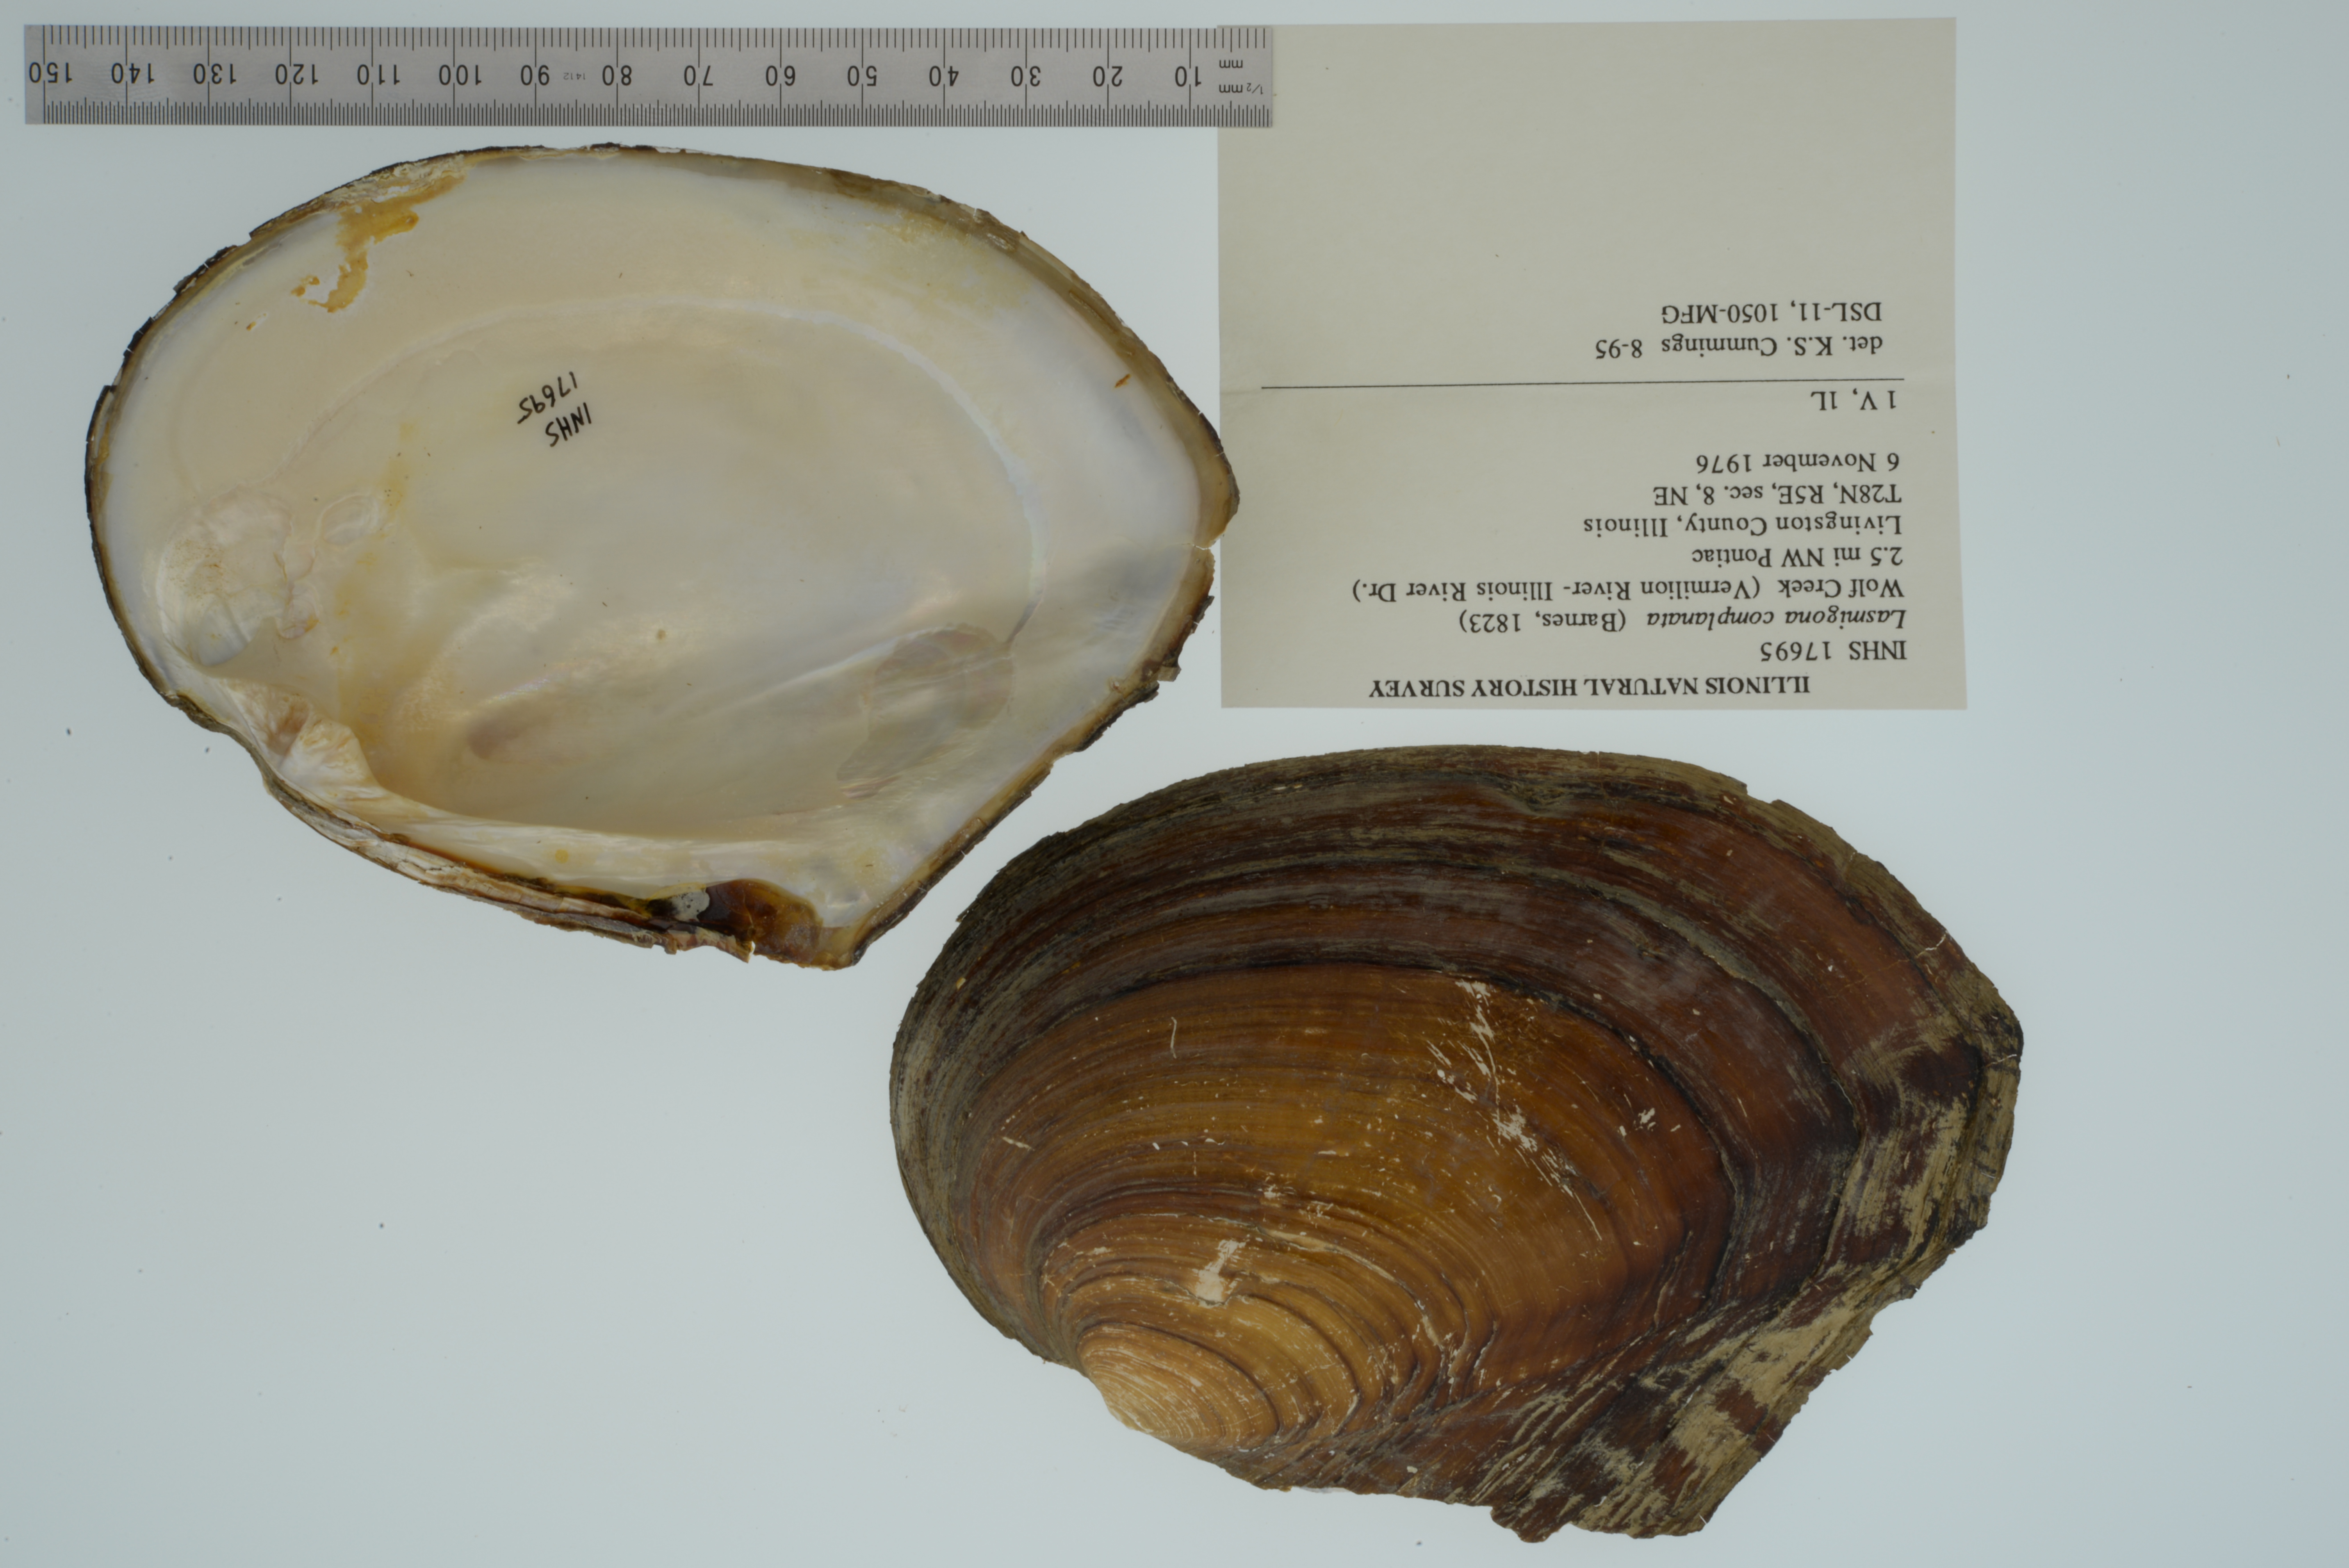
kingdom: Animalia
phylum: Mollusca
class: Bivalvia
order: Unionida
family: Unionidae
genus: Lasmigona
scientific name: Lasmigona complanata
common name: White heelsplitter
